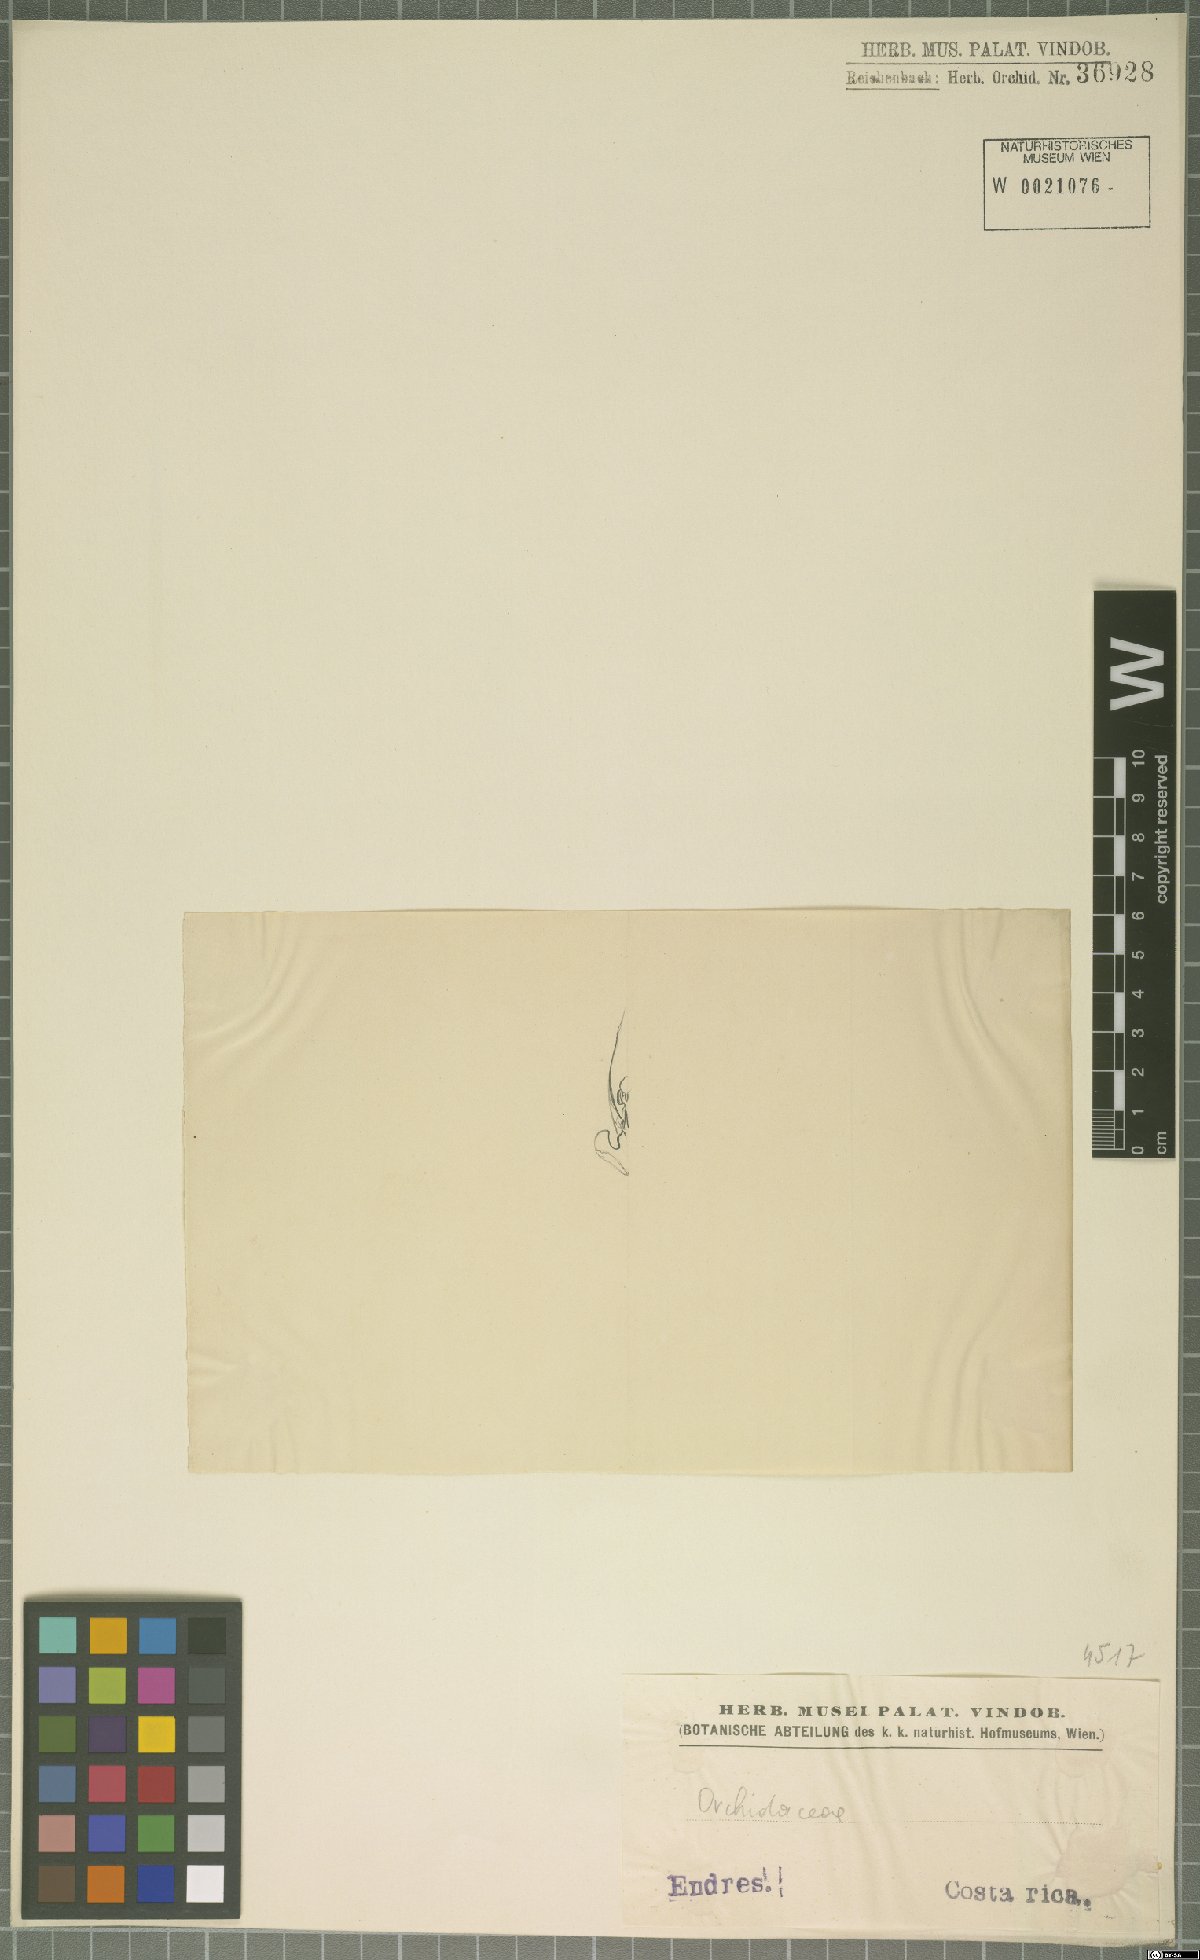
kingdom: Plantae
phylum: Tracheophyta
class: Liliopsida
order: Asparagales
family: Orchidaceae
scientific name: Orchidaceae
